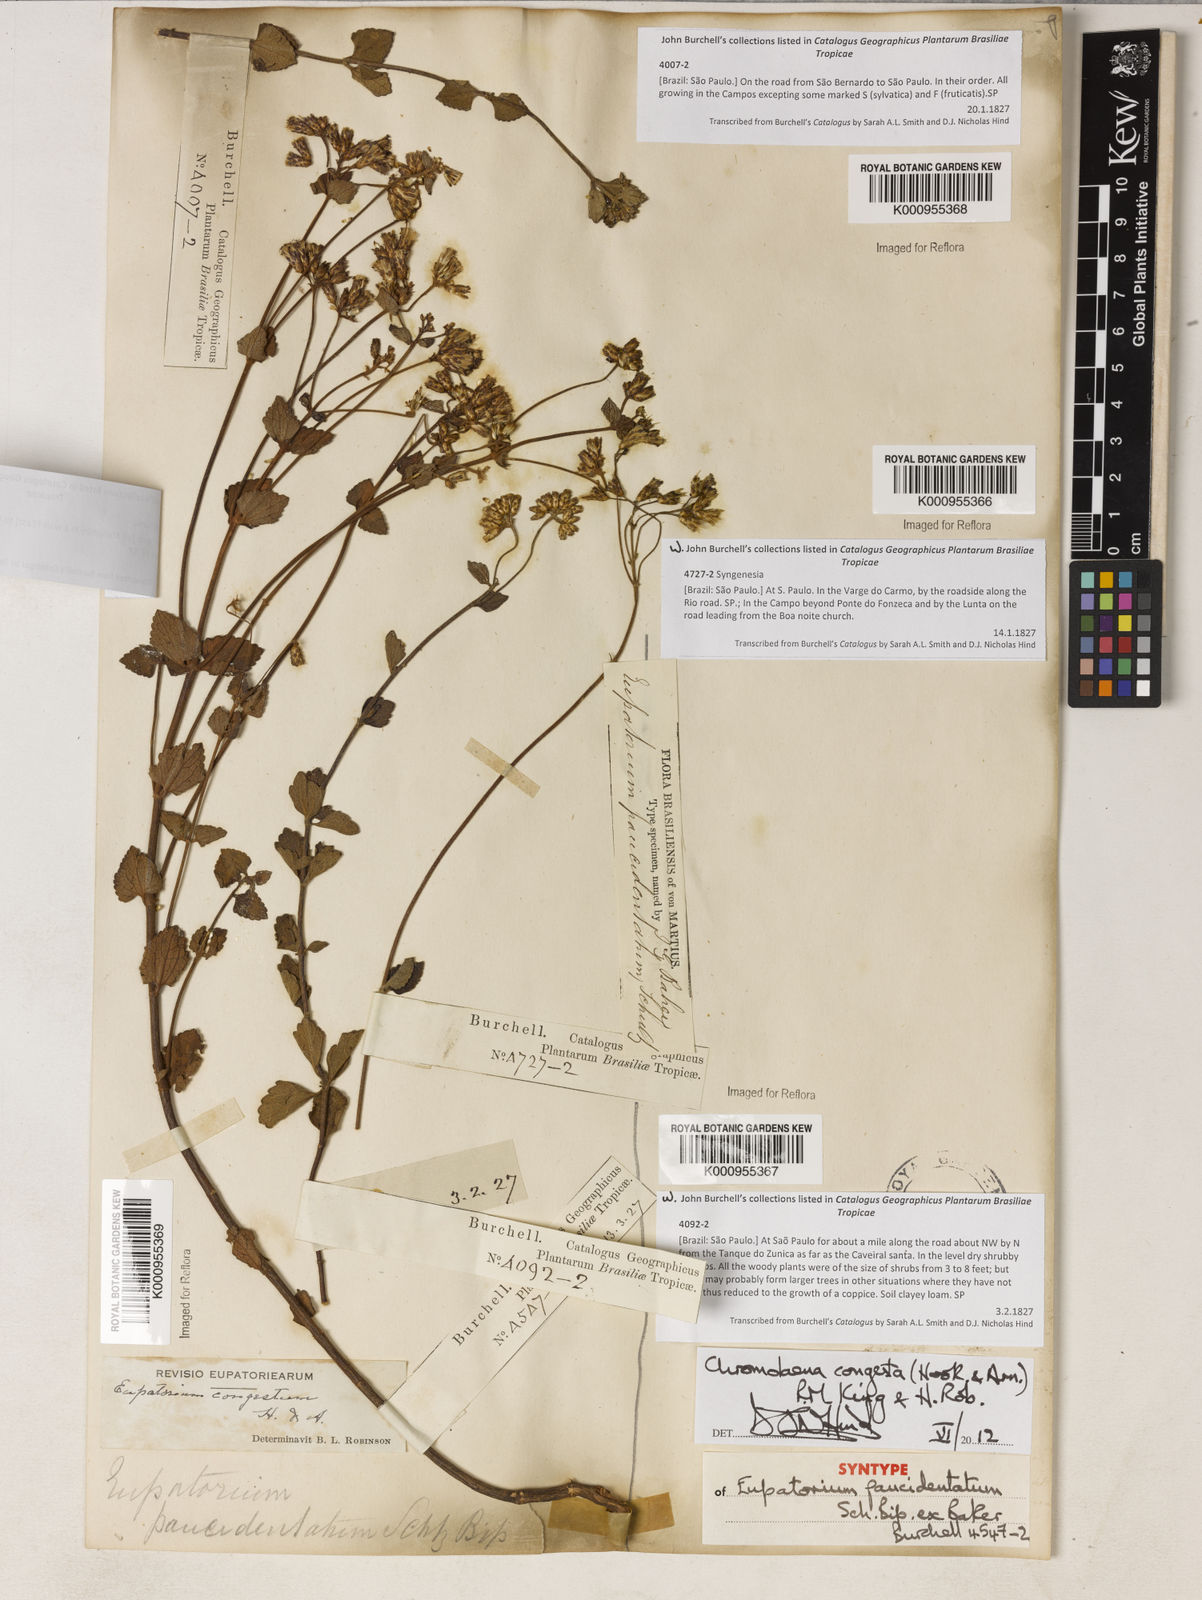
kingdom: Plantae
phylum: Tracheophyta
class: Magnoliopsida
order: Asterales
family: Asteraceae
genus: Chromolaena
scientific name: Chromolaena congesta
